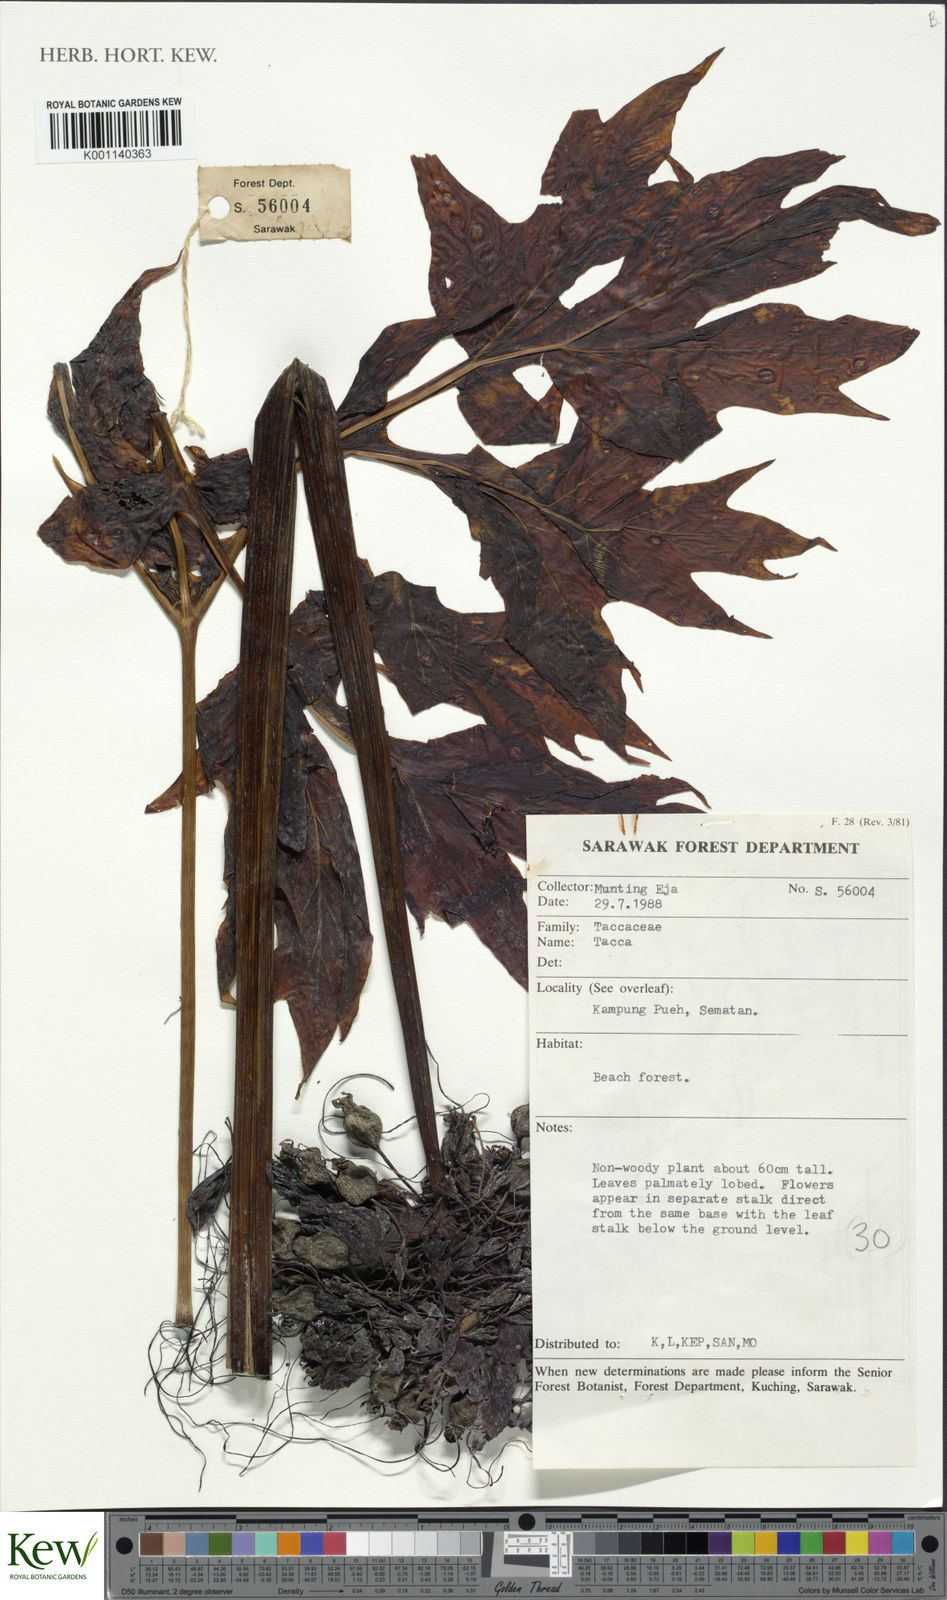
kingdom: Plantae
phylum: Tracheophyta
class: Liliopsida
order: Dioscoreales
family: Dioscoreaceae
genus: Tacca
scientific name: Tacca
